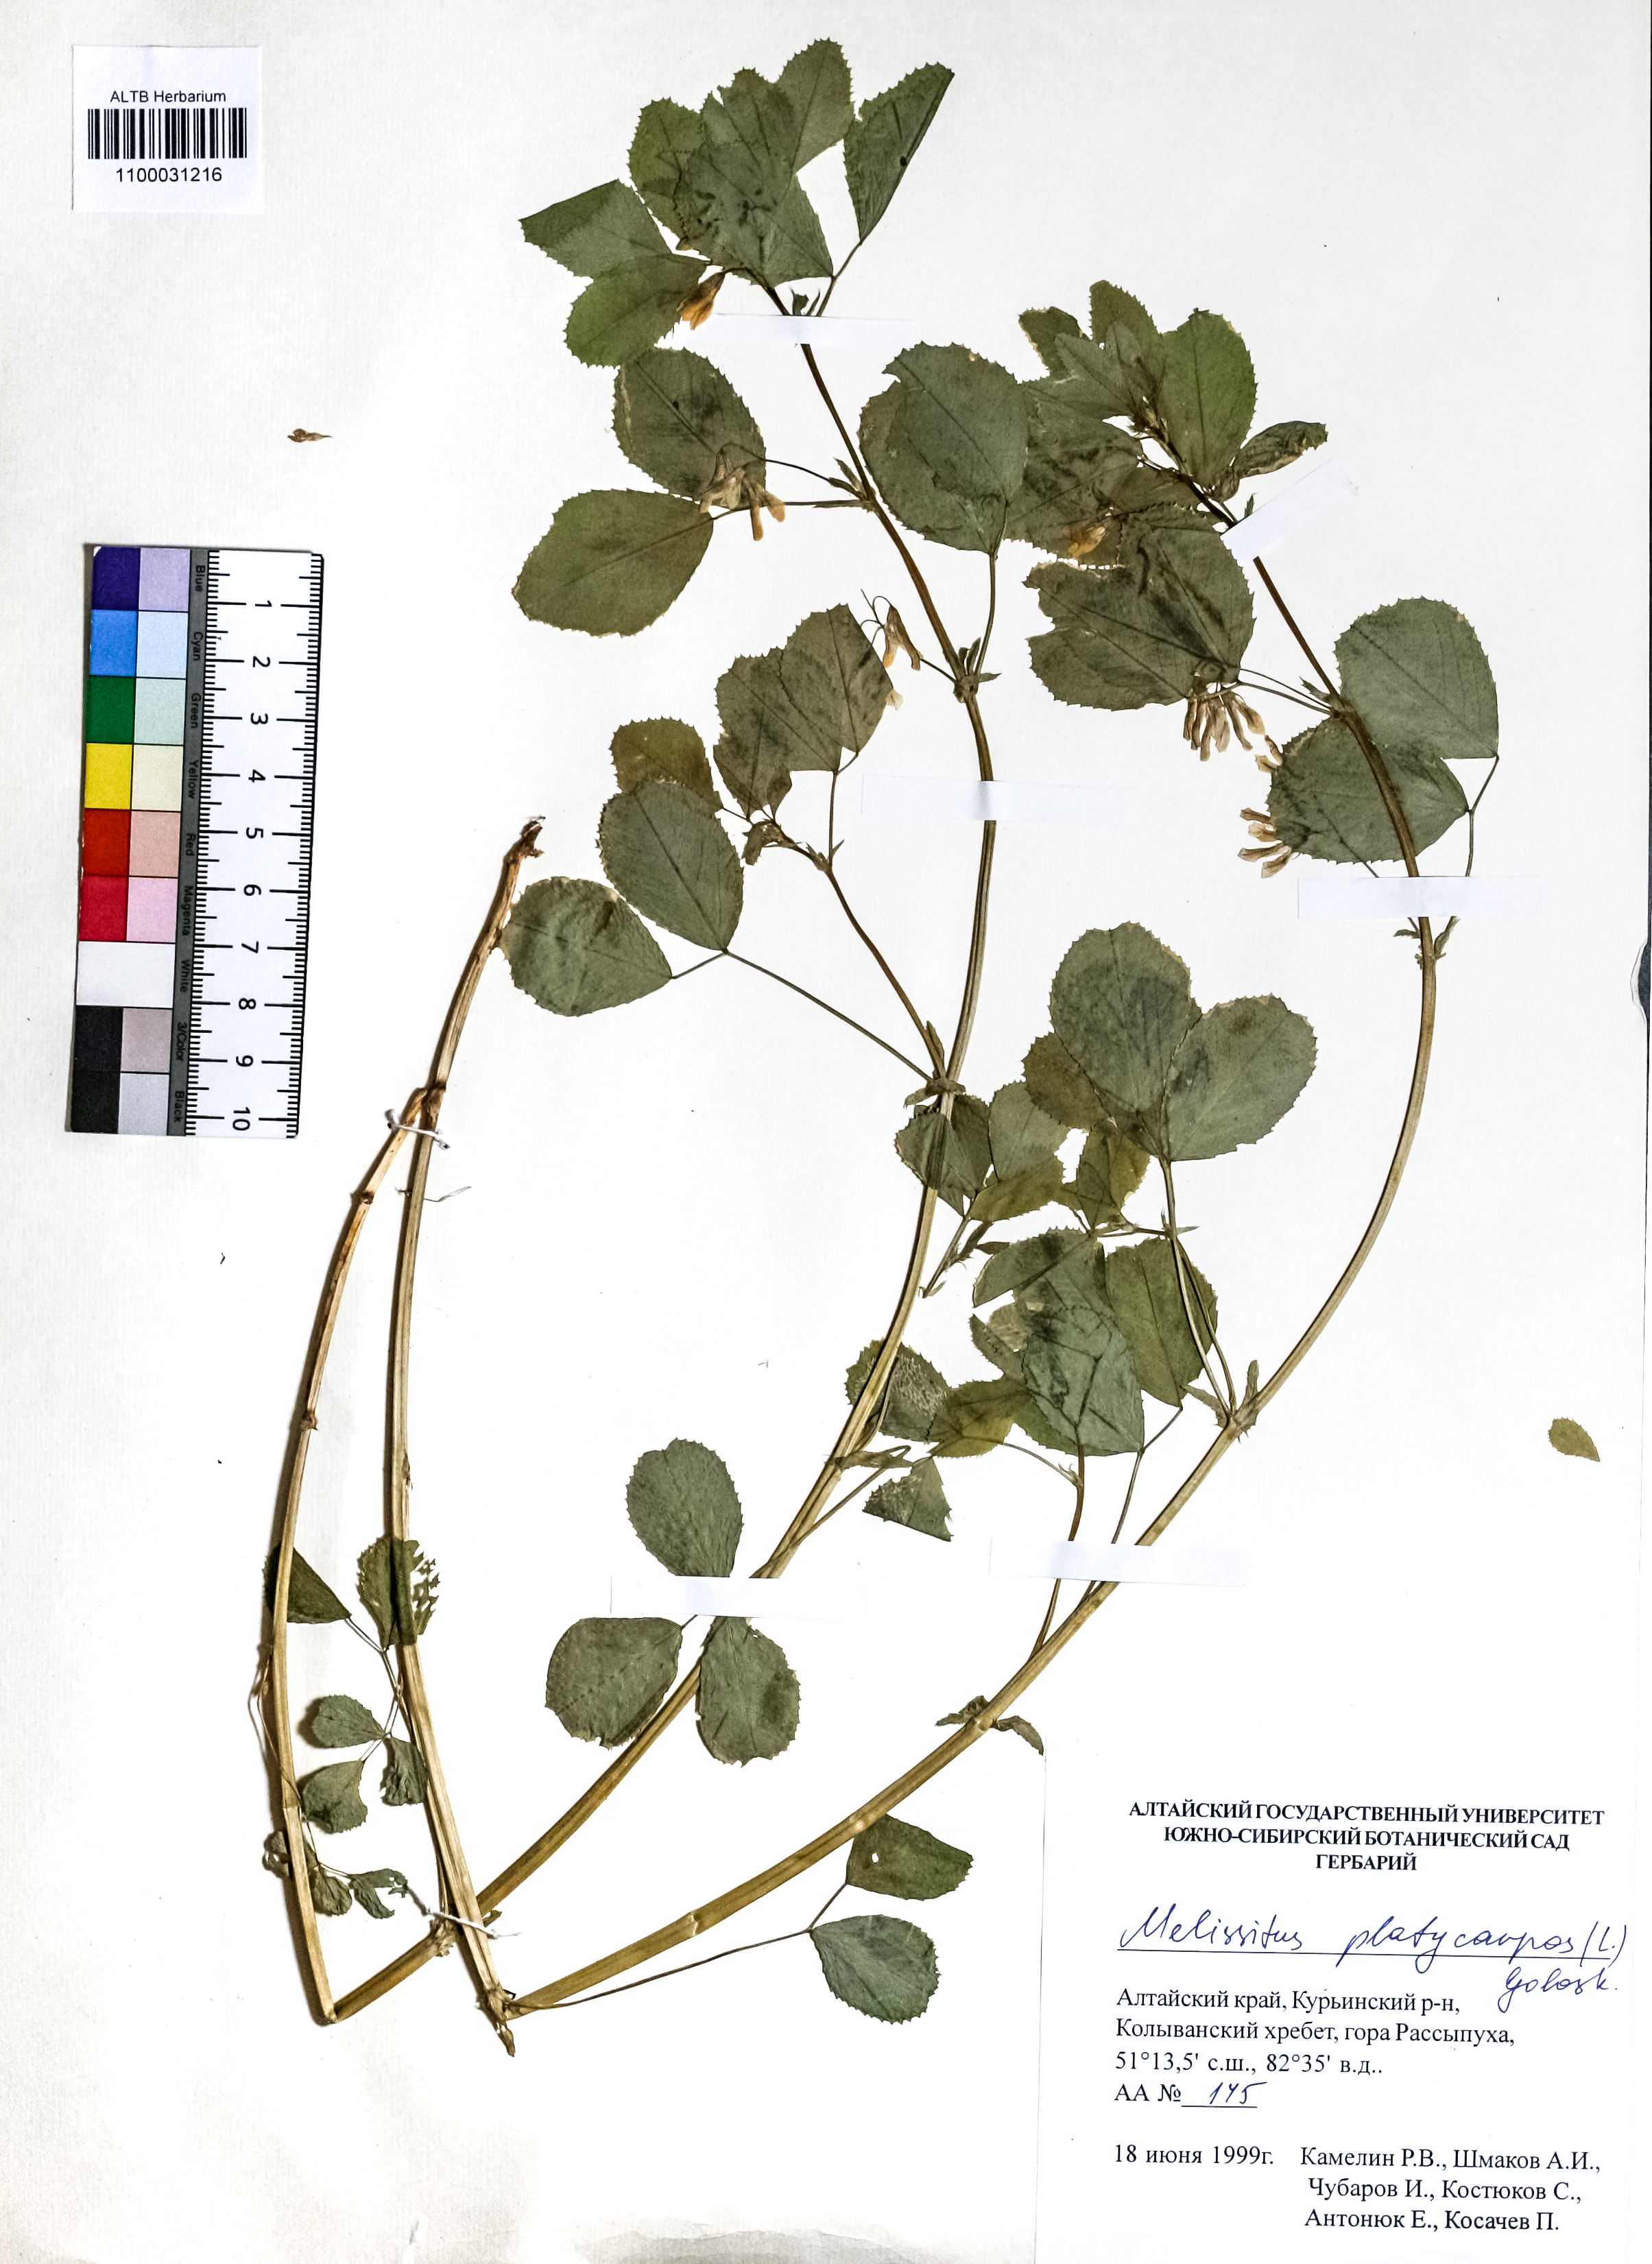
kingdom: Plantae
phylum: Tracheophyta
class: Magnoliopsida
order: Fabales
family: Fabaceae
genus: Medicago
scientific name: Medicago platycarpos
